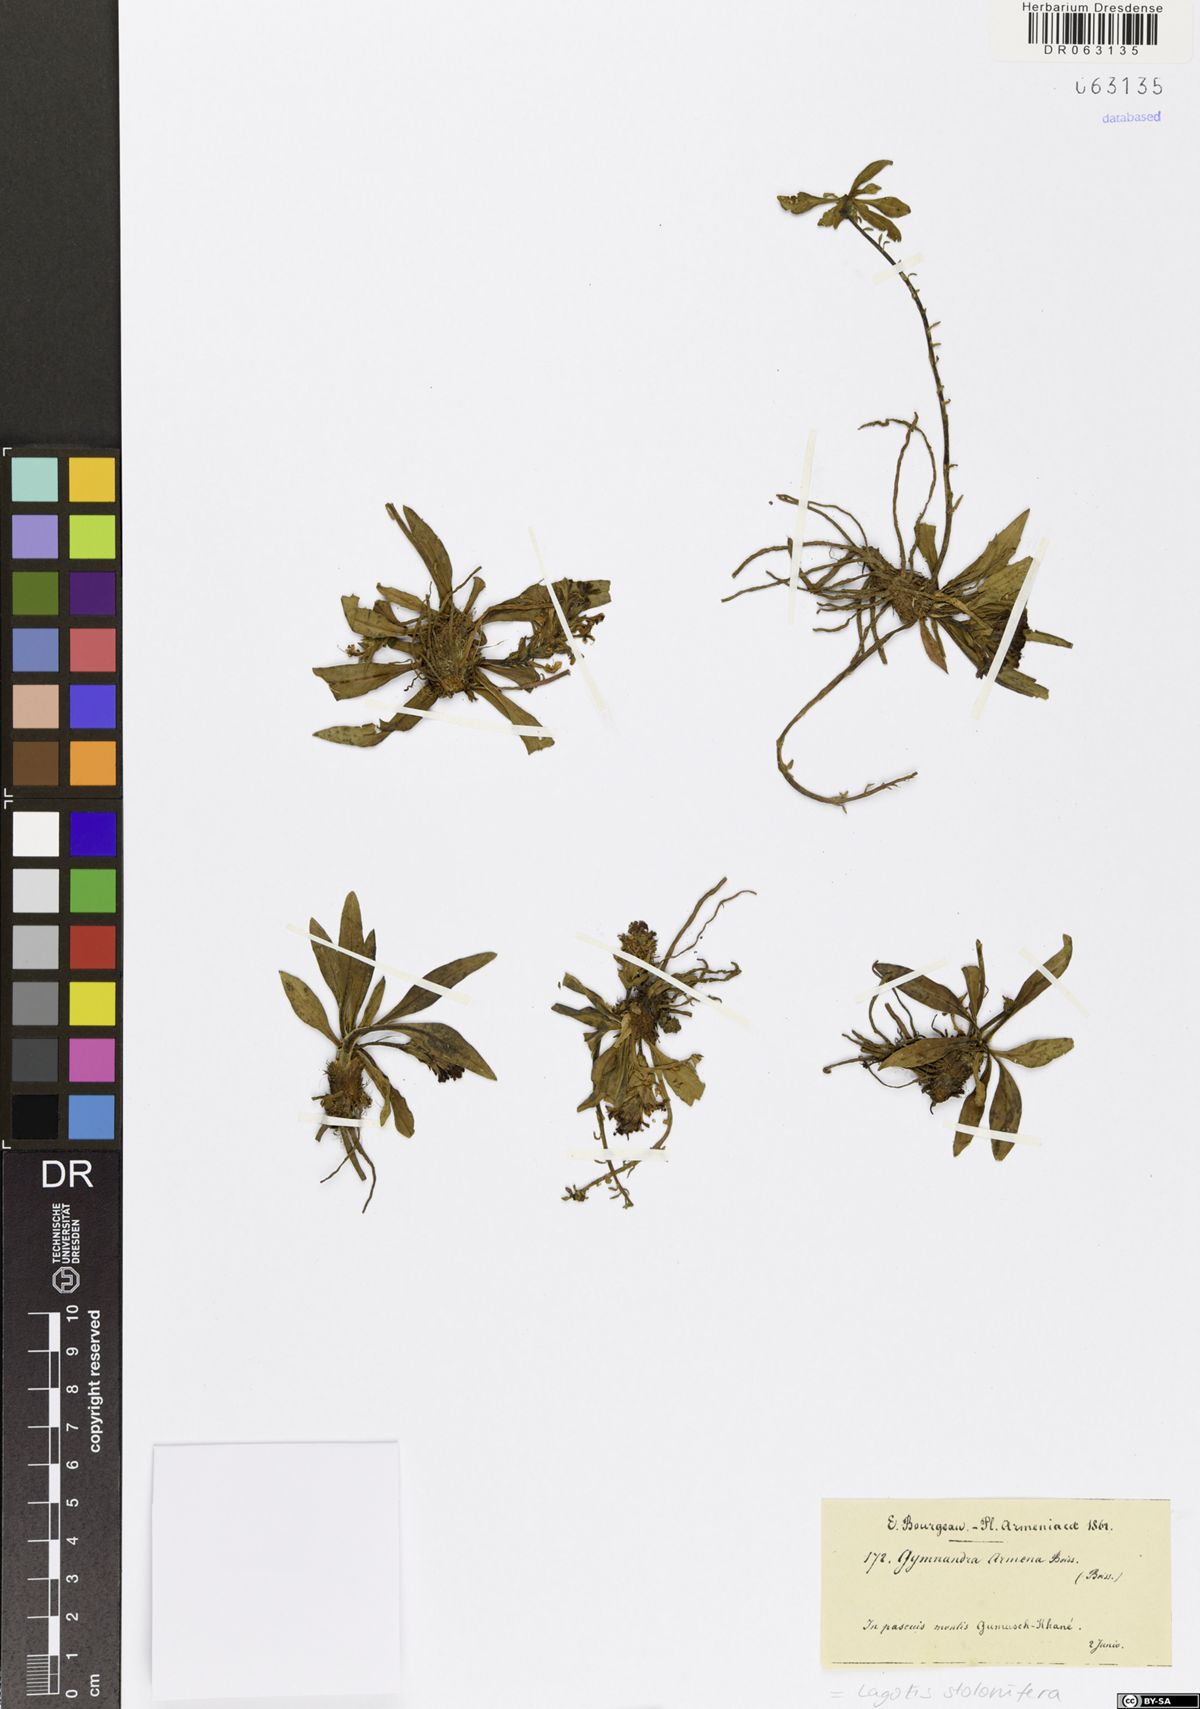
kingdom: Plantae
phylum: Tracheophyta
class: Magnoliopsida
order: Lamiales
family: Plantaginaceae
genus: Lagotis
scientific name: Lagotis stolonifera
